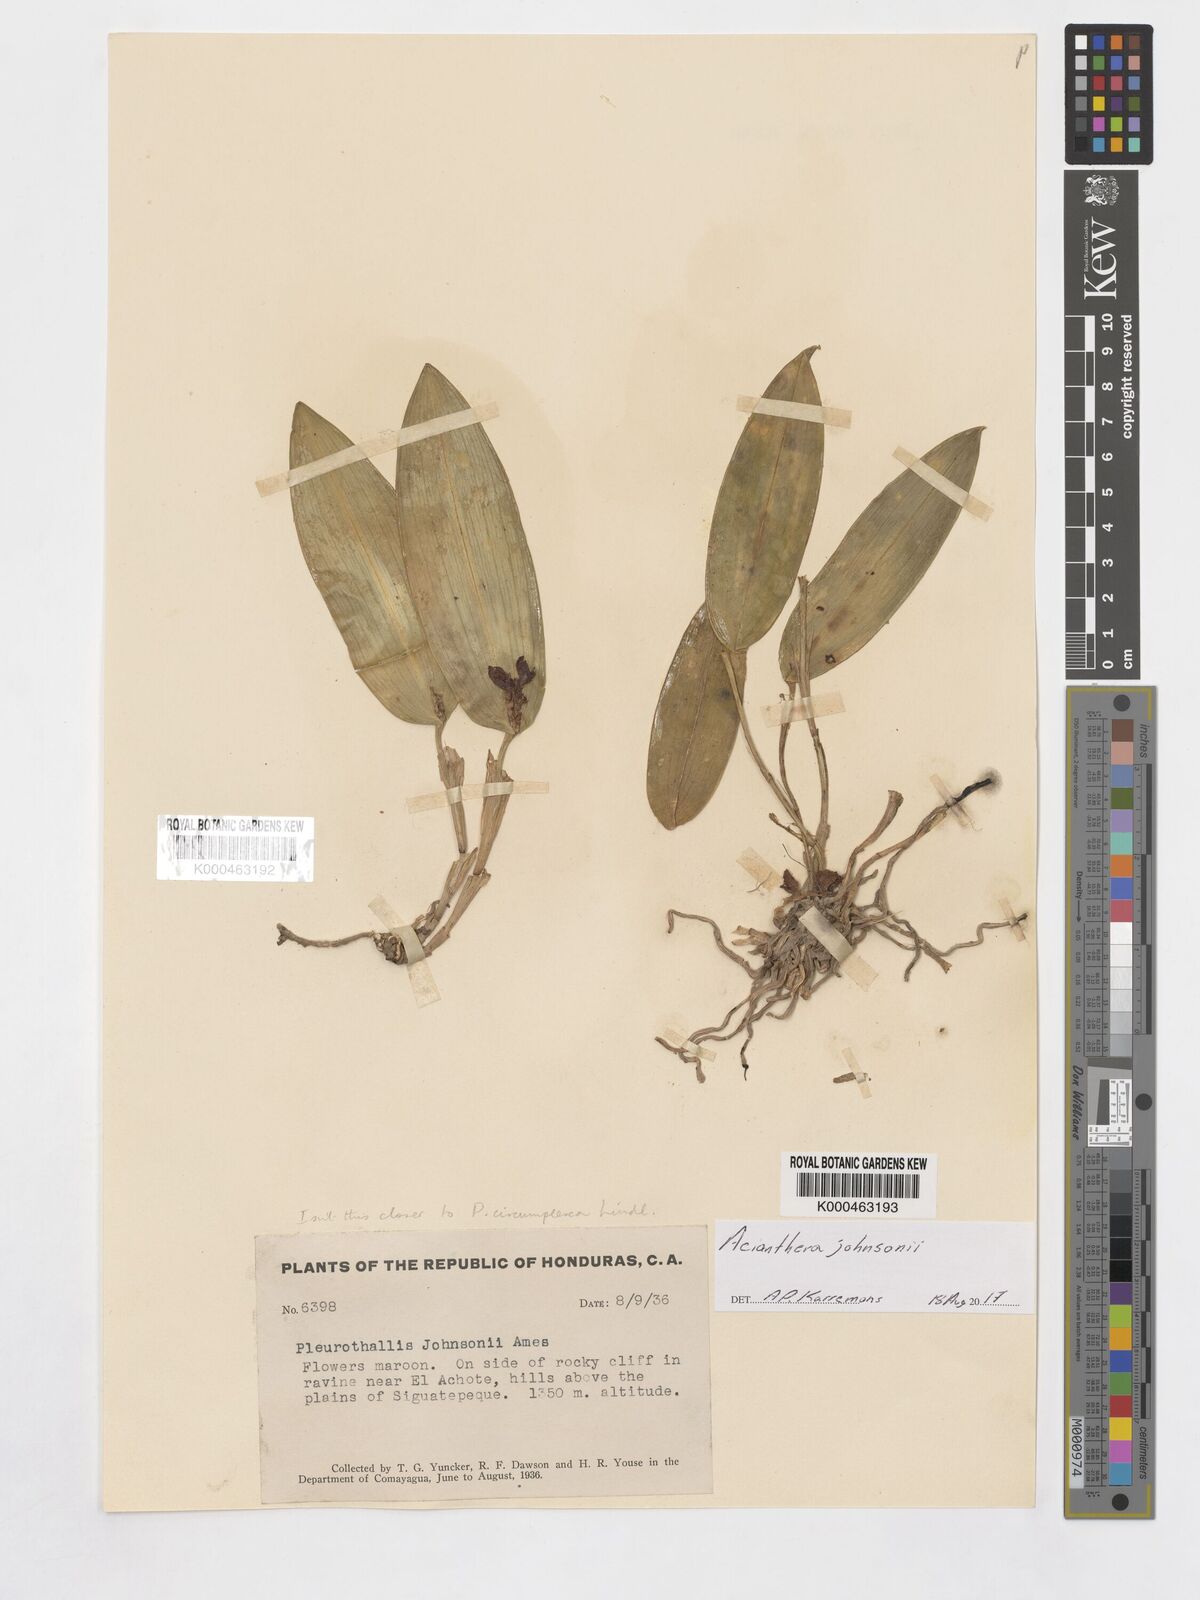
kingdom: Plantae
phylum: Tracheophyta
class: Liliopsida
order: Asparagales
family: Orchidaceae
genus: Acianthera
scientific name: Acianthera johnsonii
